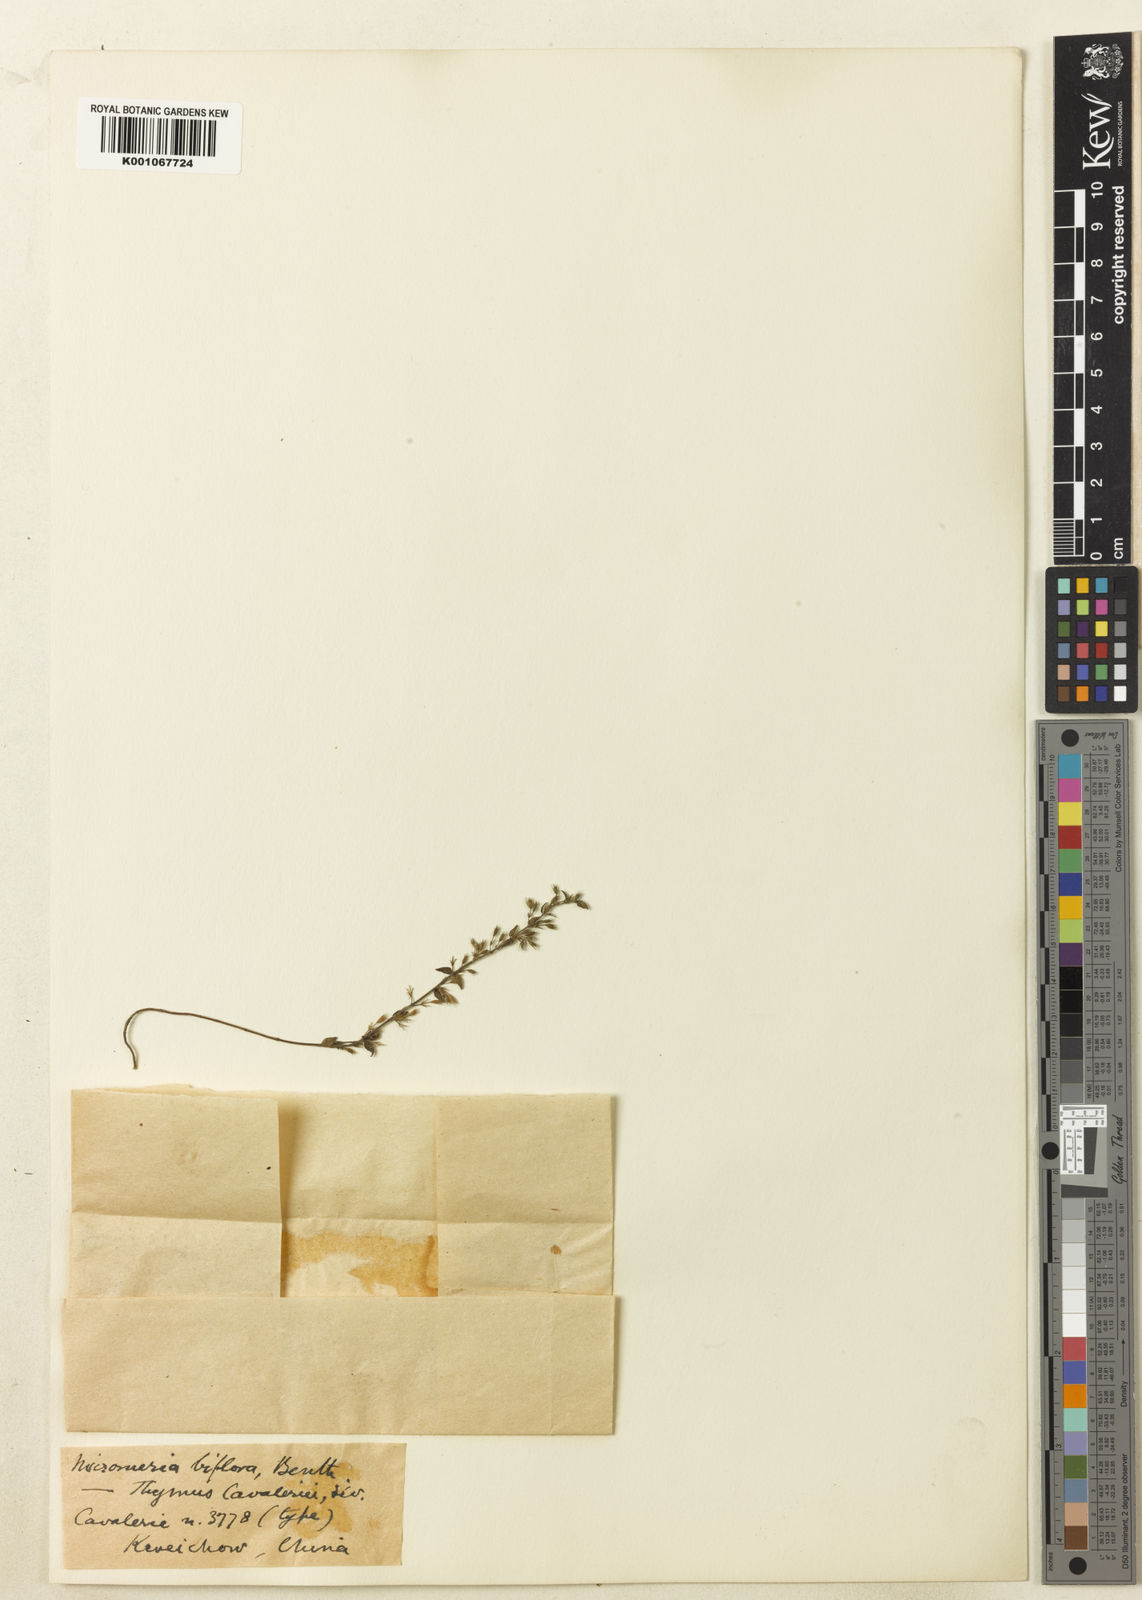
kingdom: Plantae
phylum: Tracheophyta
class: Magnoliopsida
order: Lamiales
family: Lamiaceae
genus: Micromeria
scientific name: Micromeria biflora
